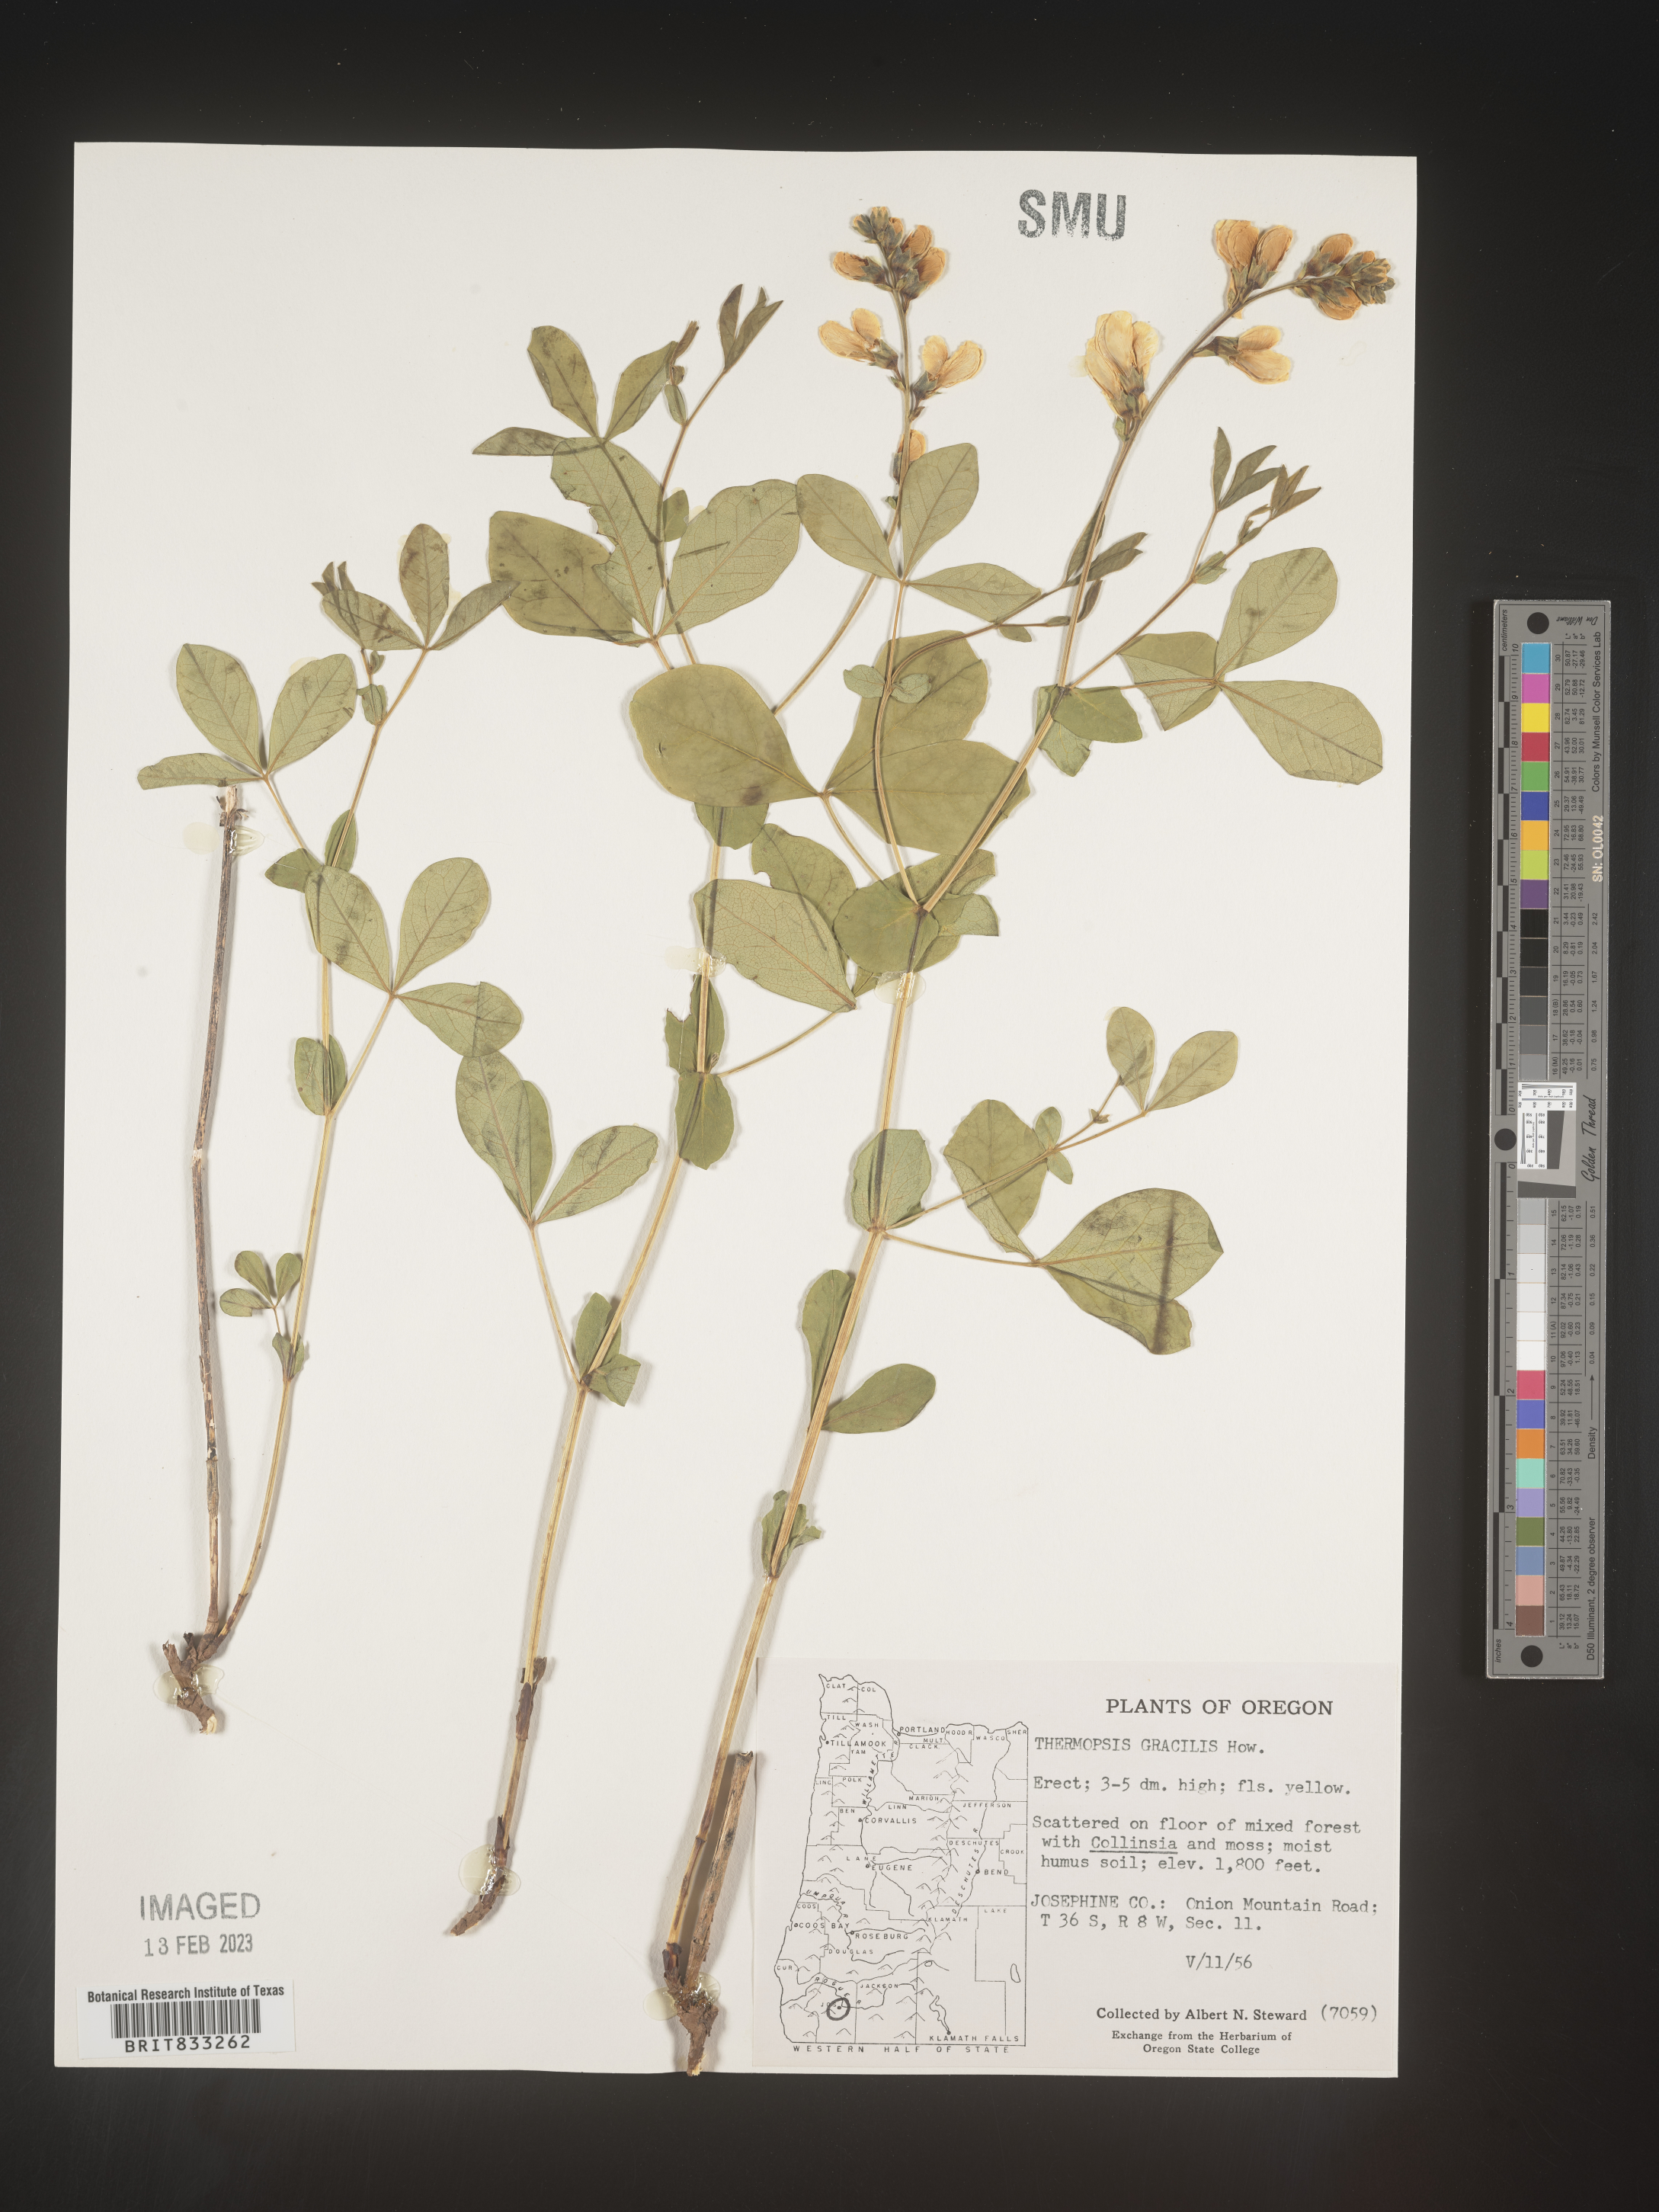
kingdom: Plantae
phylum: Tracheophyta
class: Magnoliopsida
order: Fabales
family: Fabaceae
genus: Thermopsis
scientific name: Thermopsis gracilis
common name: Slender golden-banner
